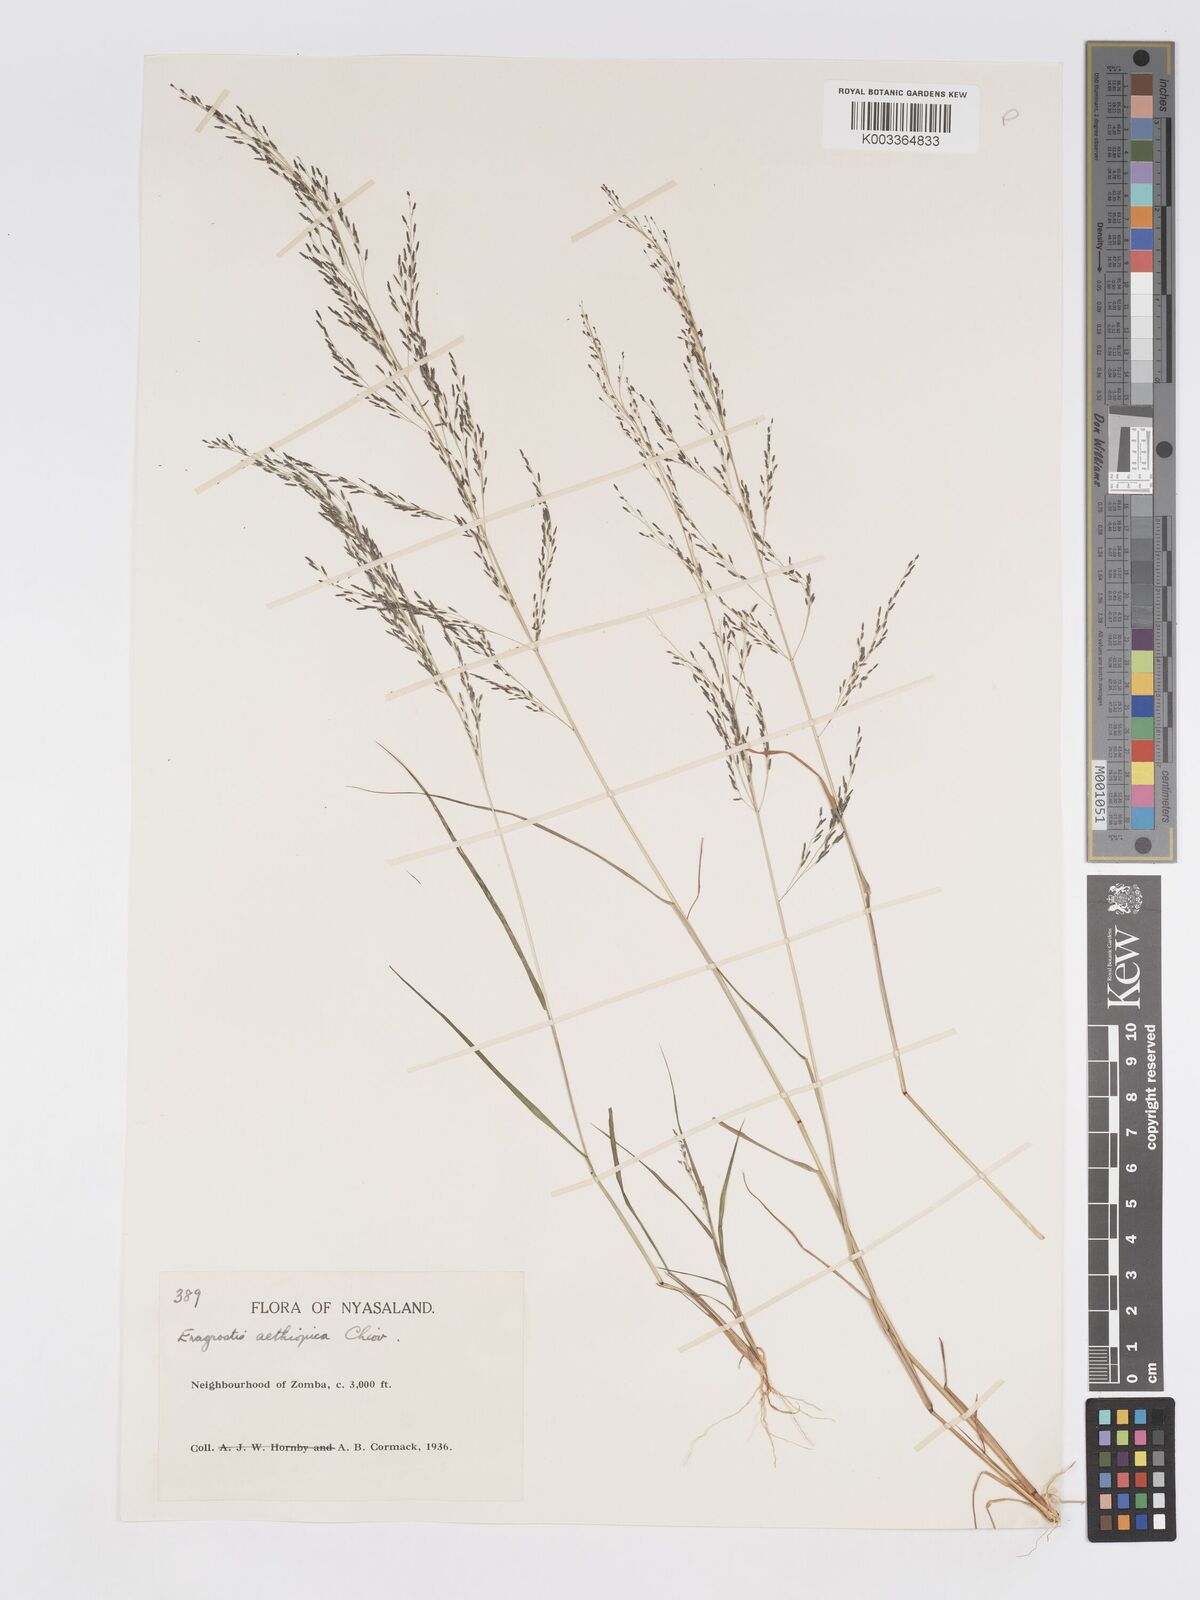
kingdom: Plantae
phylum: Tracheophyta
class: Liliopsida
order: Poales
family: Poaceae
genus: Eragrostis
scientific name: Eragrostis aethiopica
